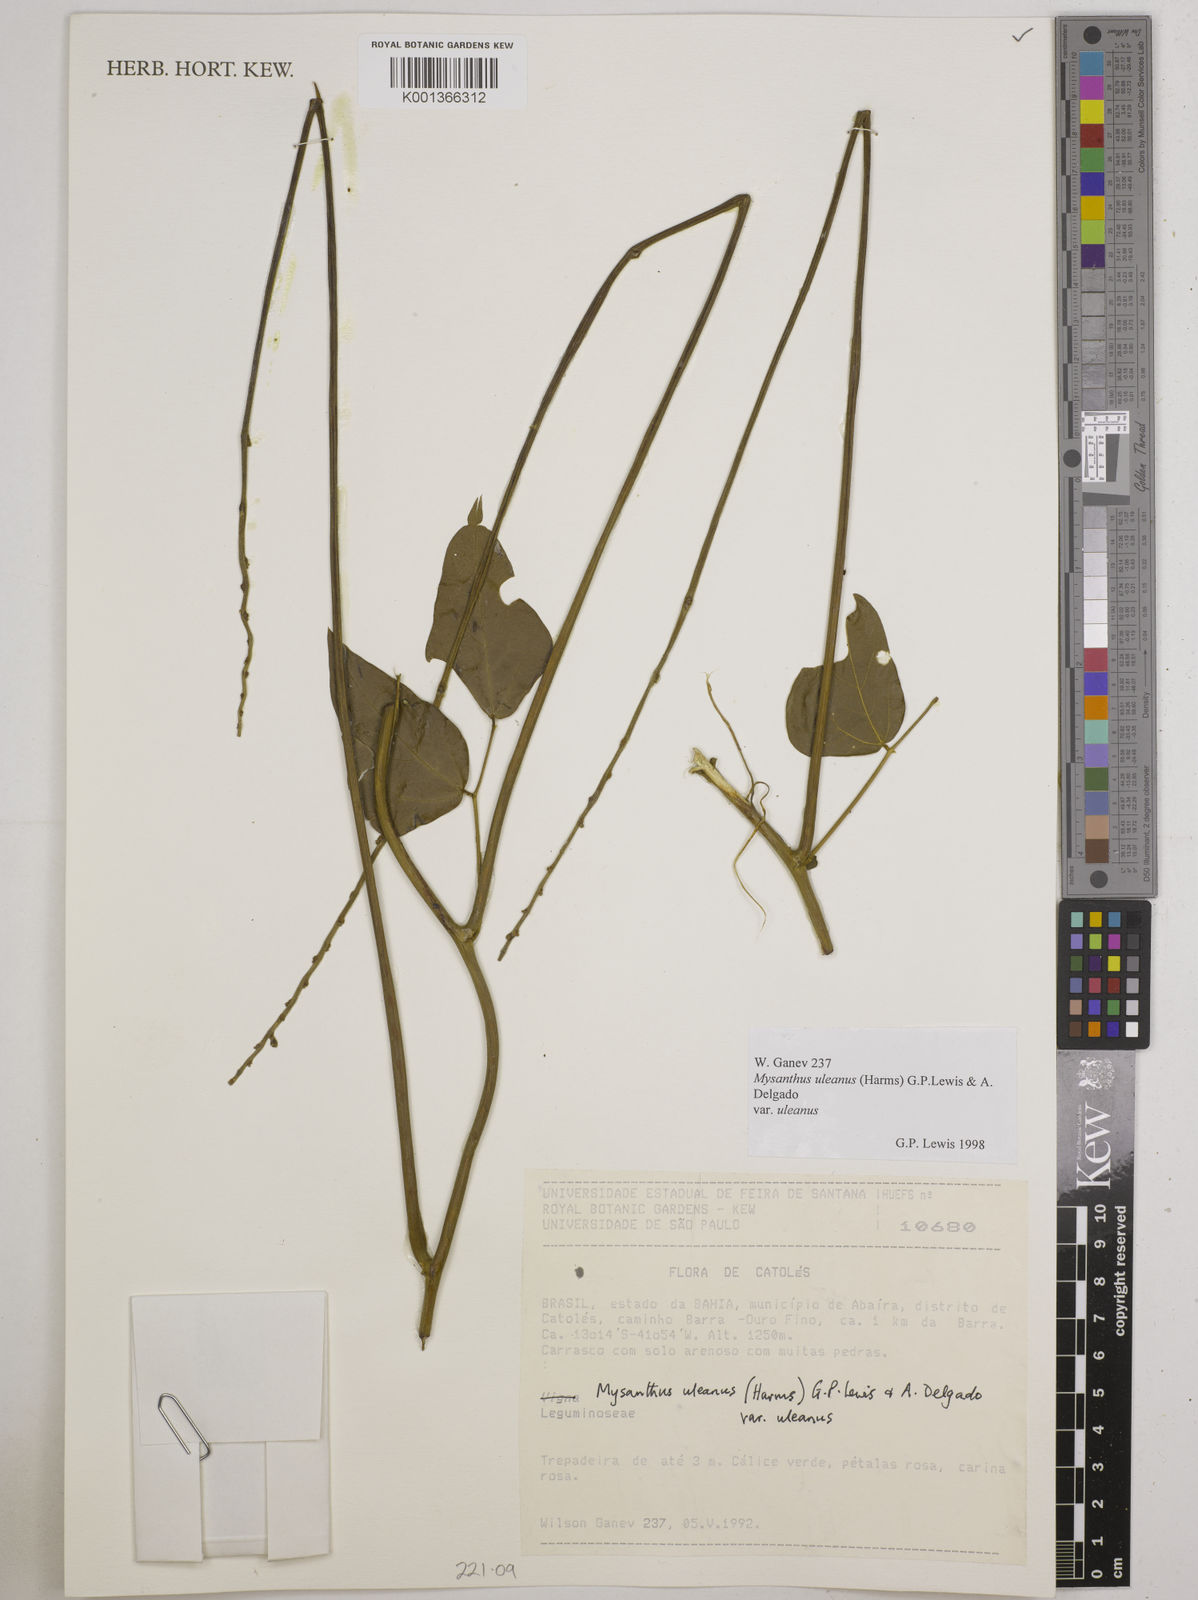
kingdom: Plantae
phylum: Tracheophyta
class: Magnoliopsida
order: Fabales
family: Fabaceae
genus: Mysanthus
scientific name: Mysanthus uleanus
